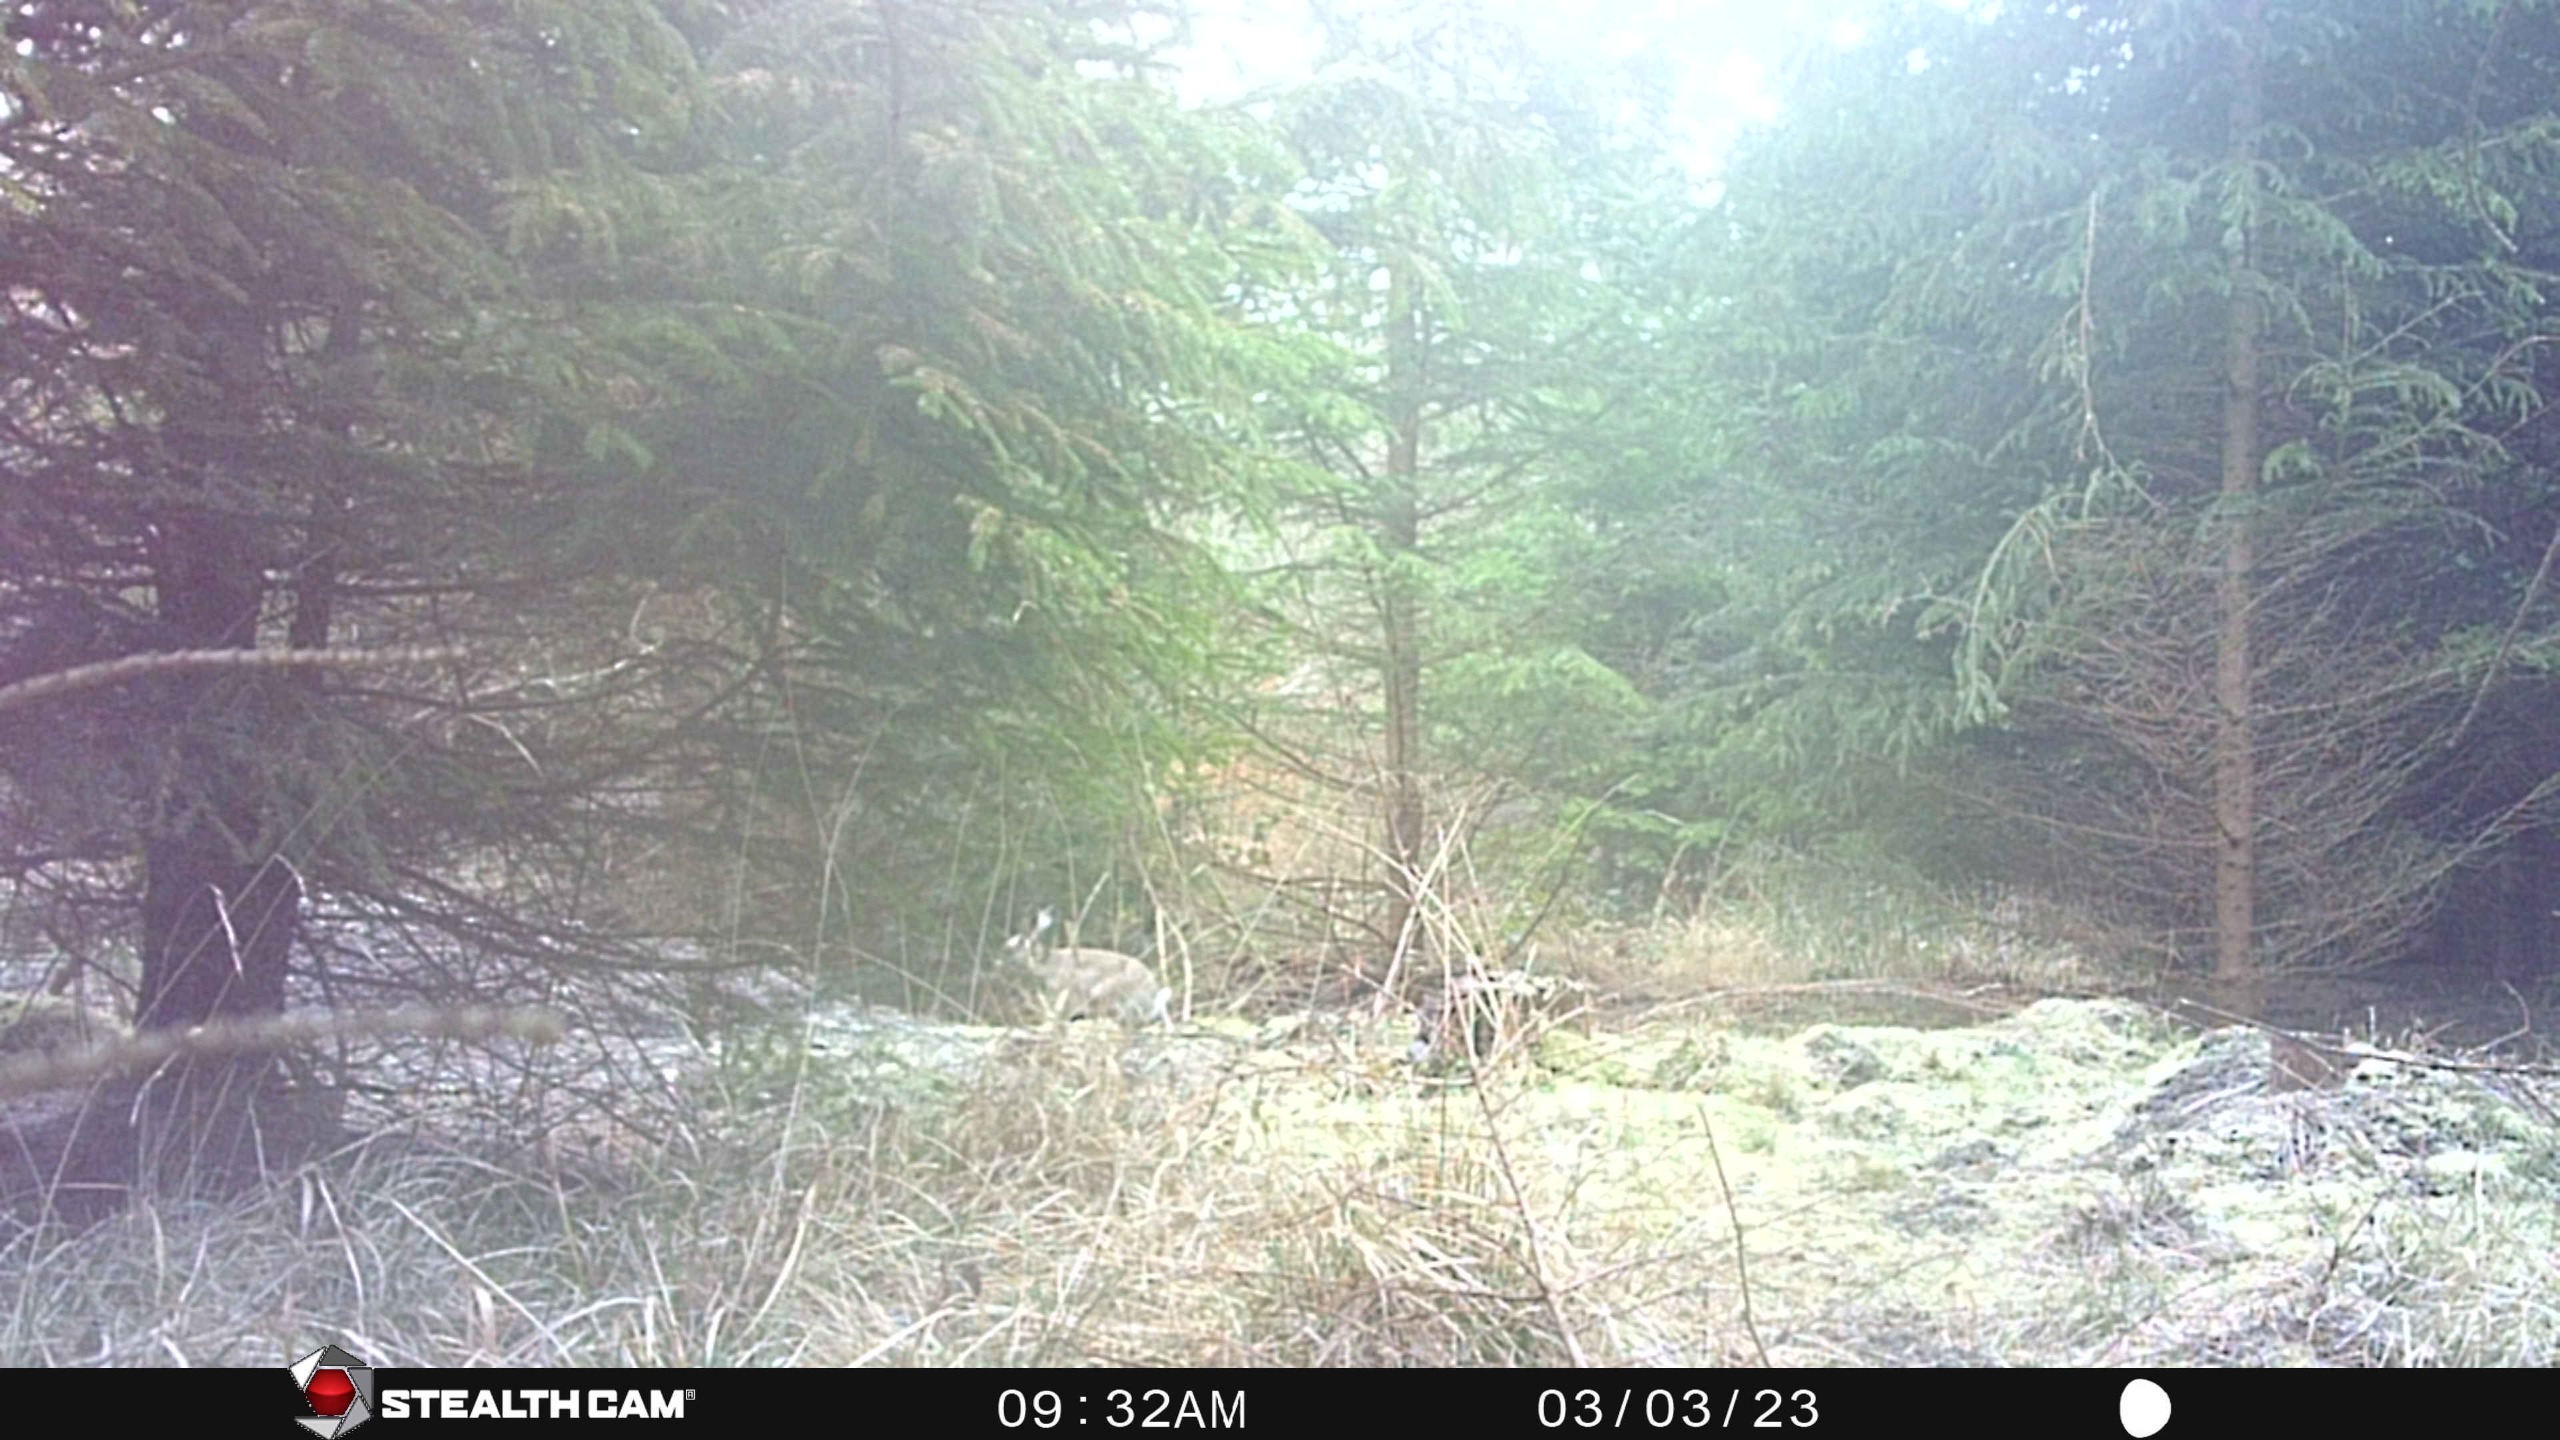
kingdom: Animalia
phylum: Chordata
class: Mammalia
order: Lagomorpha
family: Leporidae
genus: Lepus
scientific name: Lepus europaeus
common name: Hare
